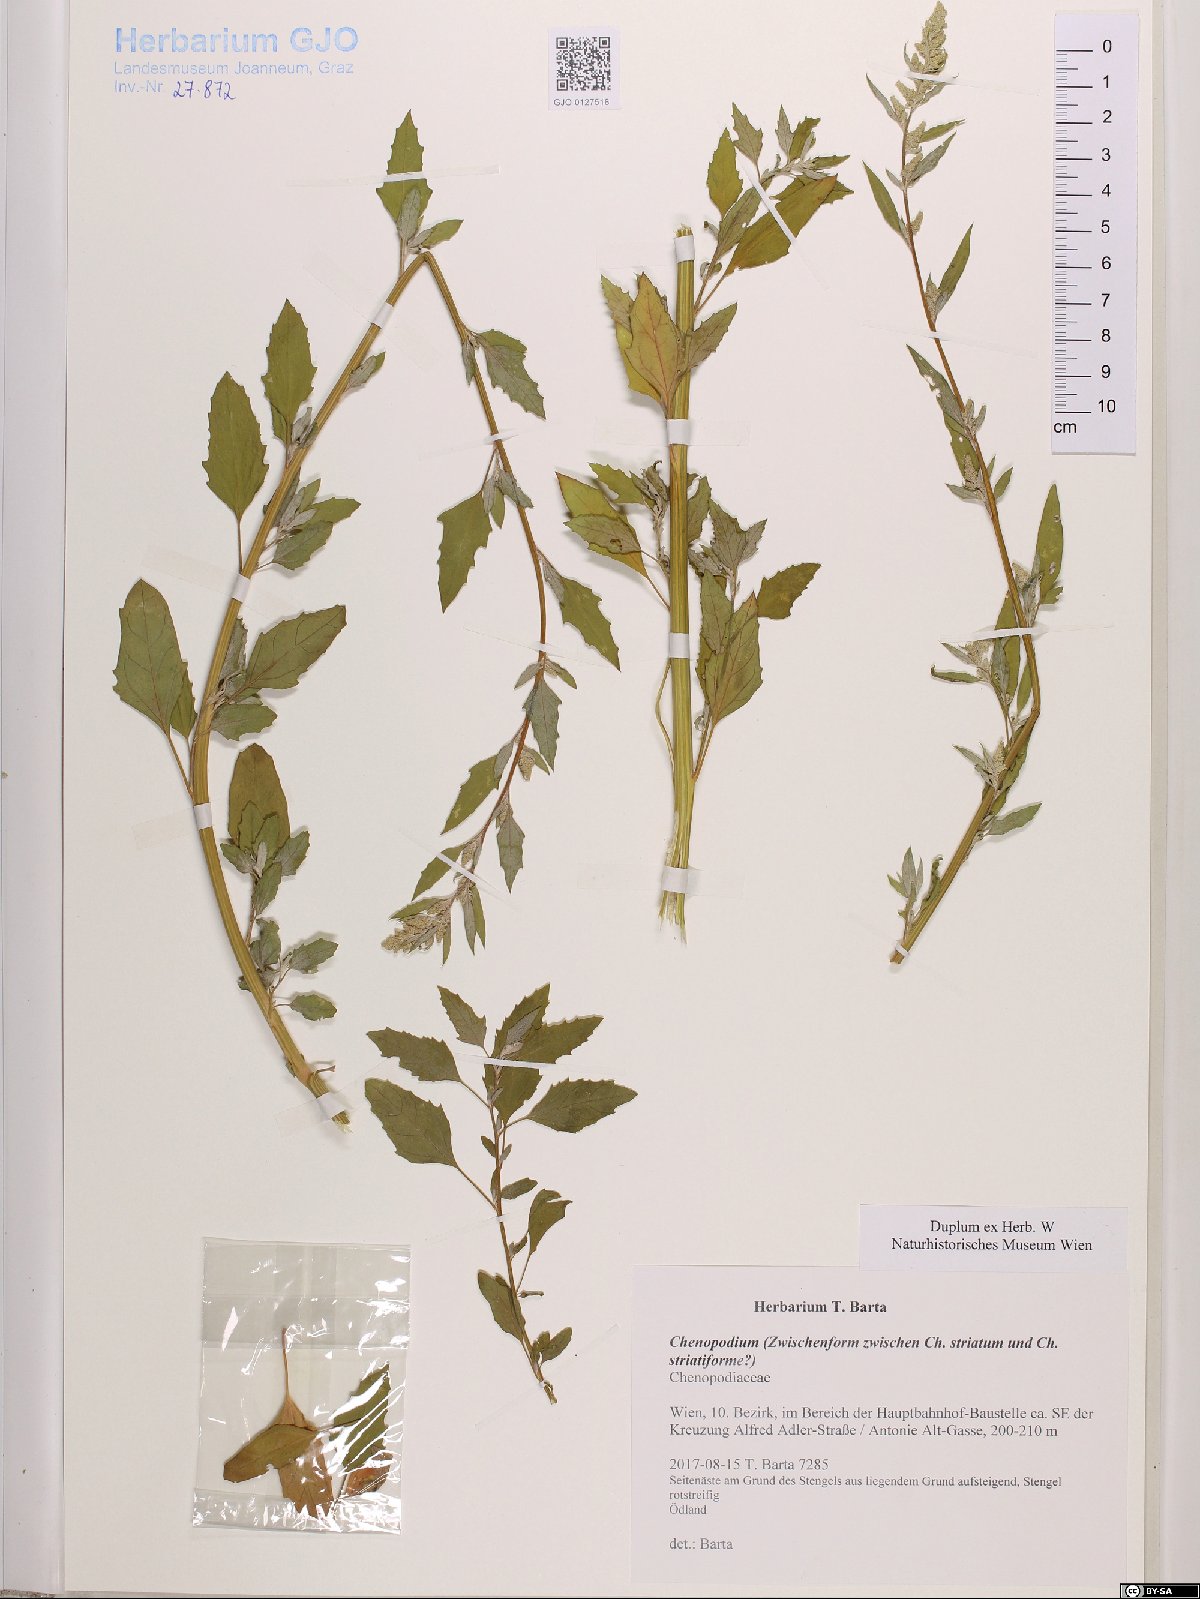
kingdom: Plantae
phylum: Tracheophyta
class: Magnoliopsida
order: Caryophyllales
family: Amaranthaceae
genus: Chenopodium
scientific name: Chenopodium
